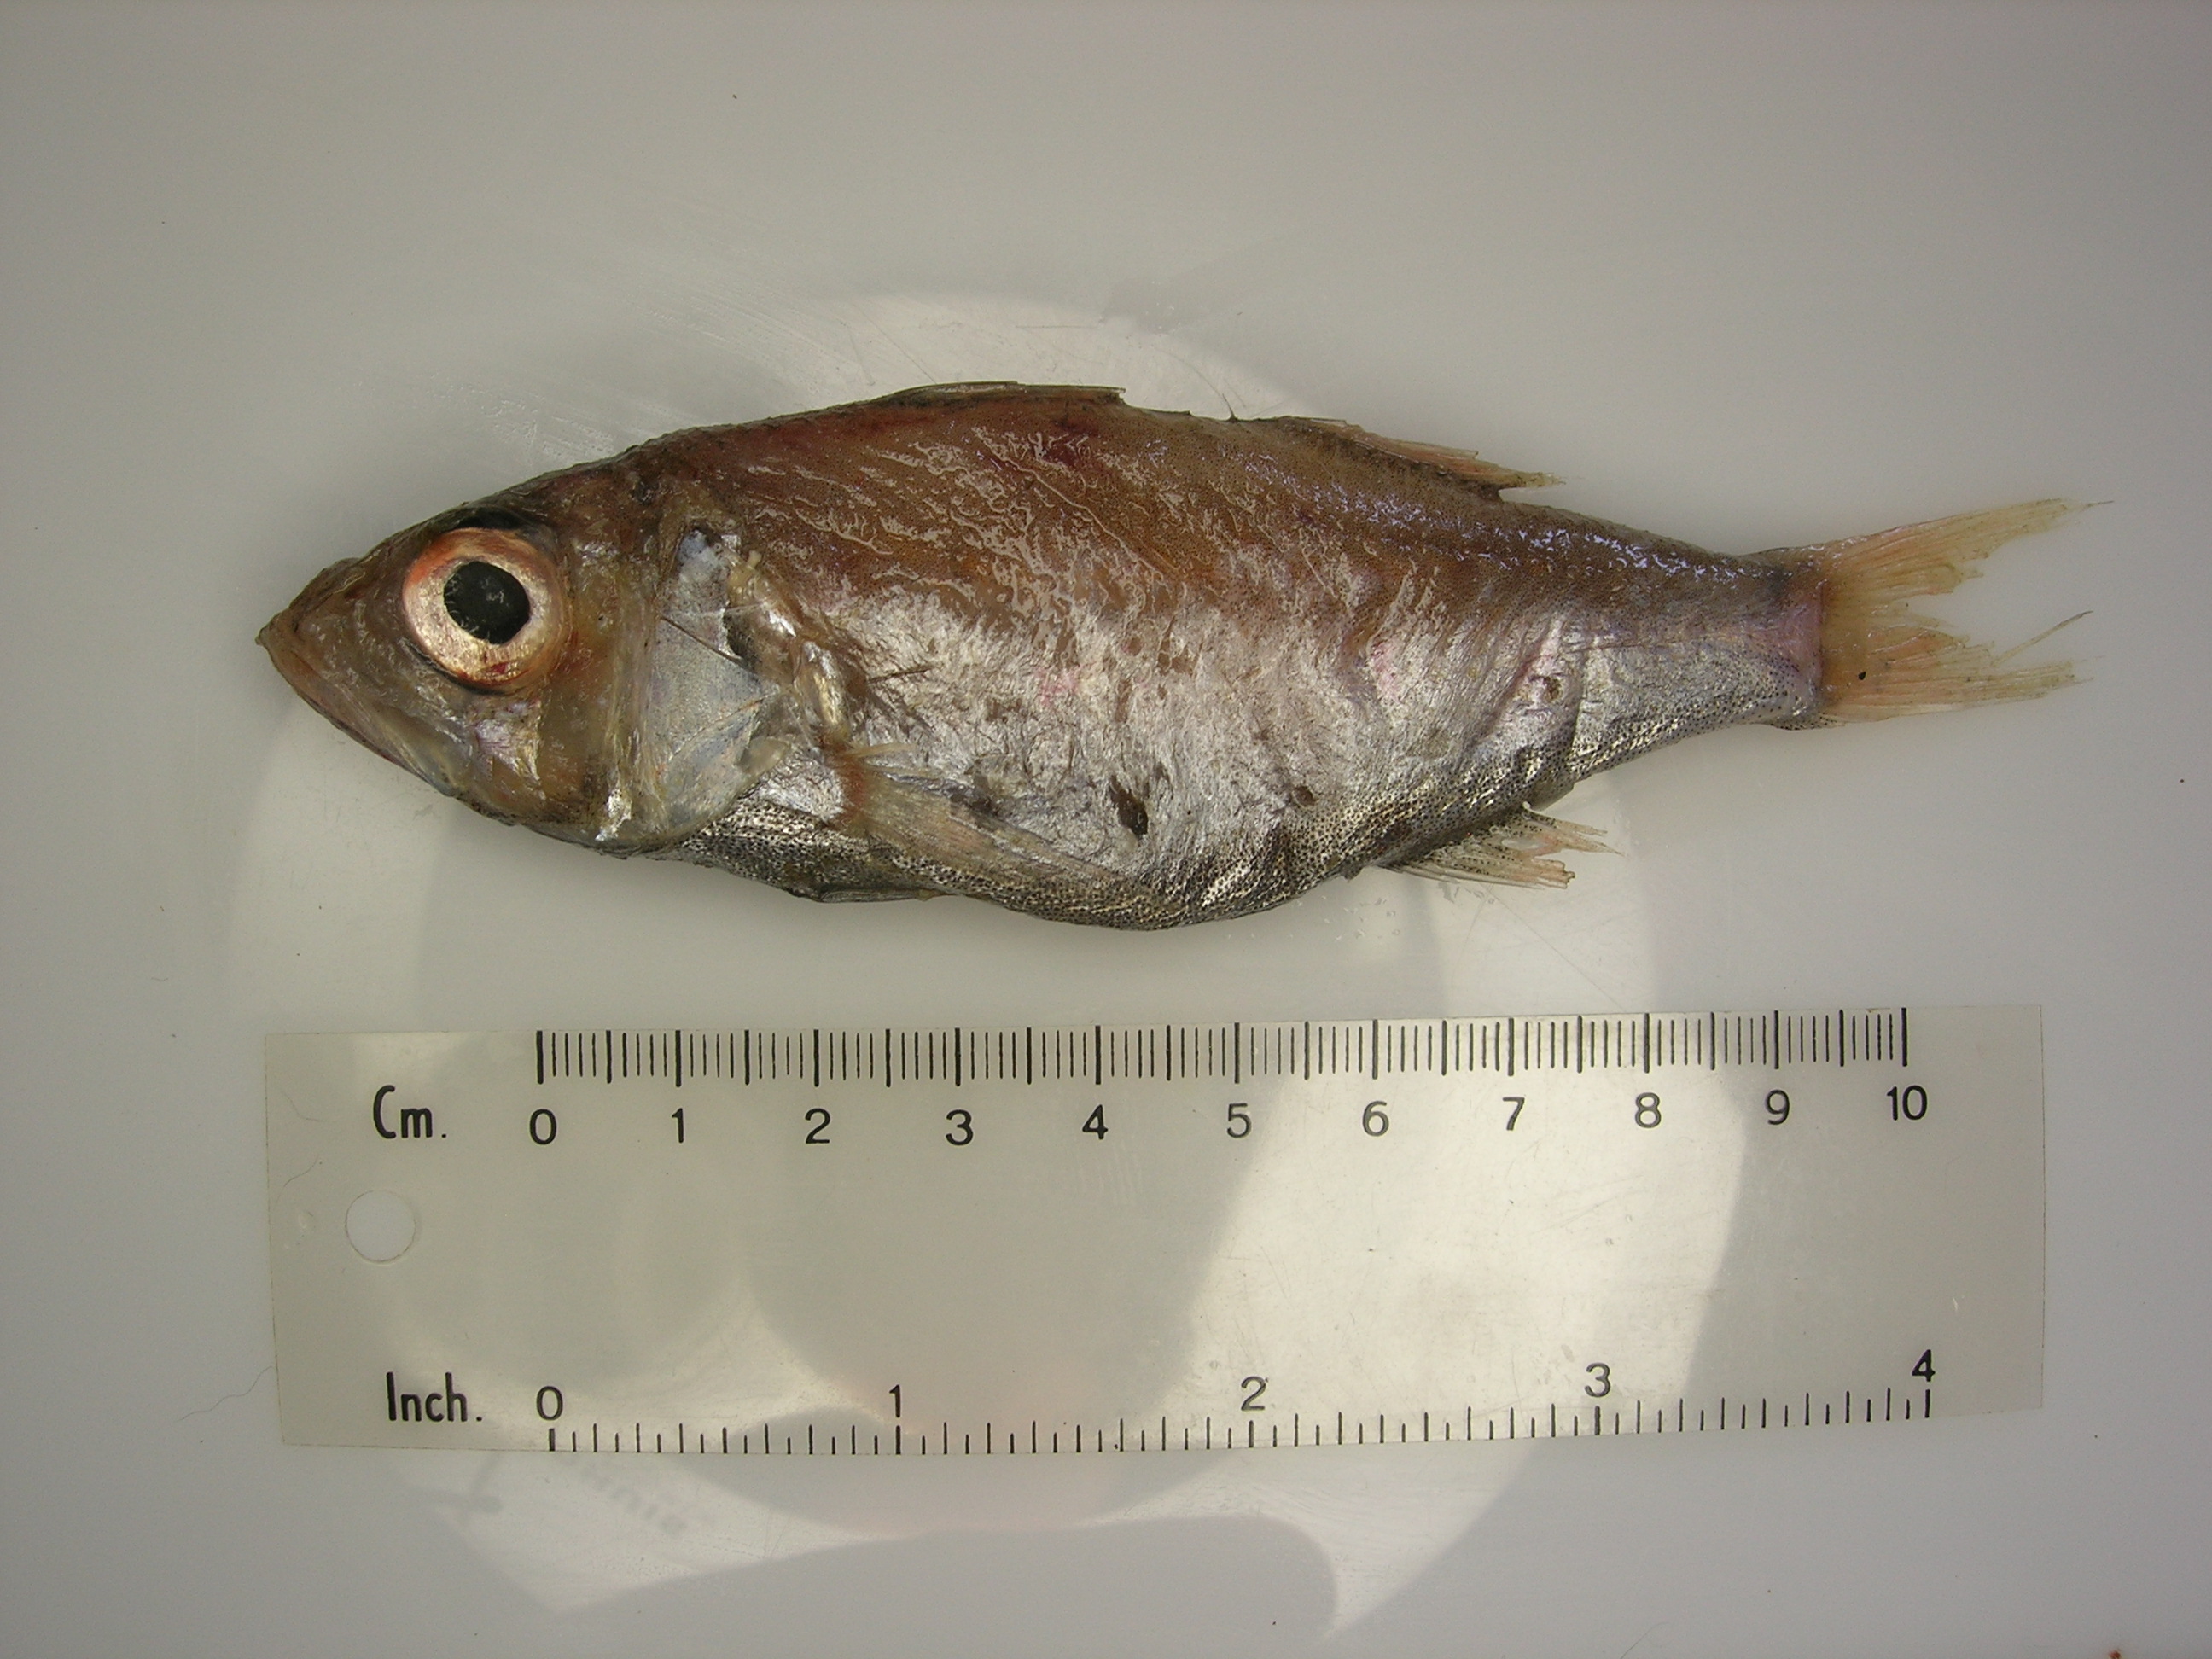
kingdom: Animalia
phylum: Chordata
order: Perciformes
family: Acropomatidae
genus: Acropoma
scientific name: Acropoma heemstrai
